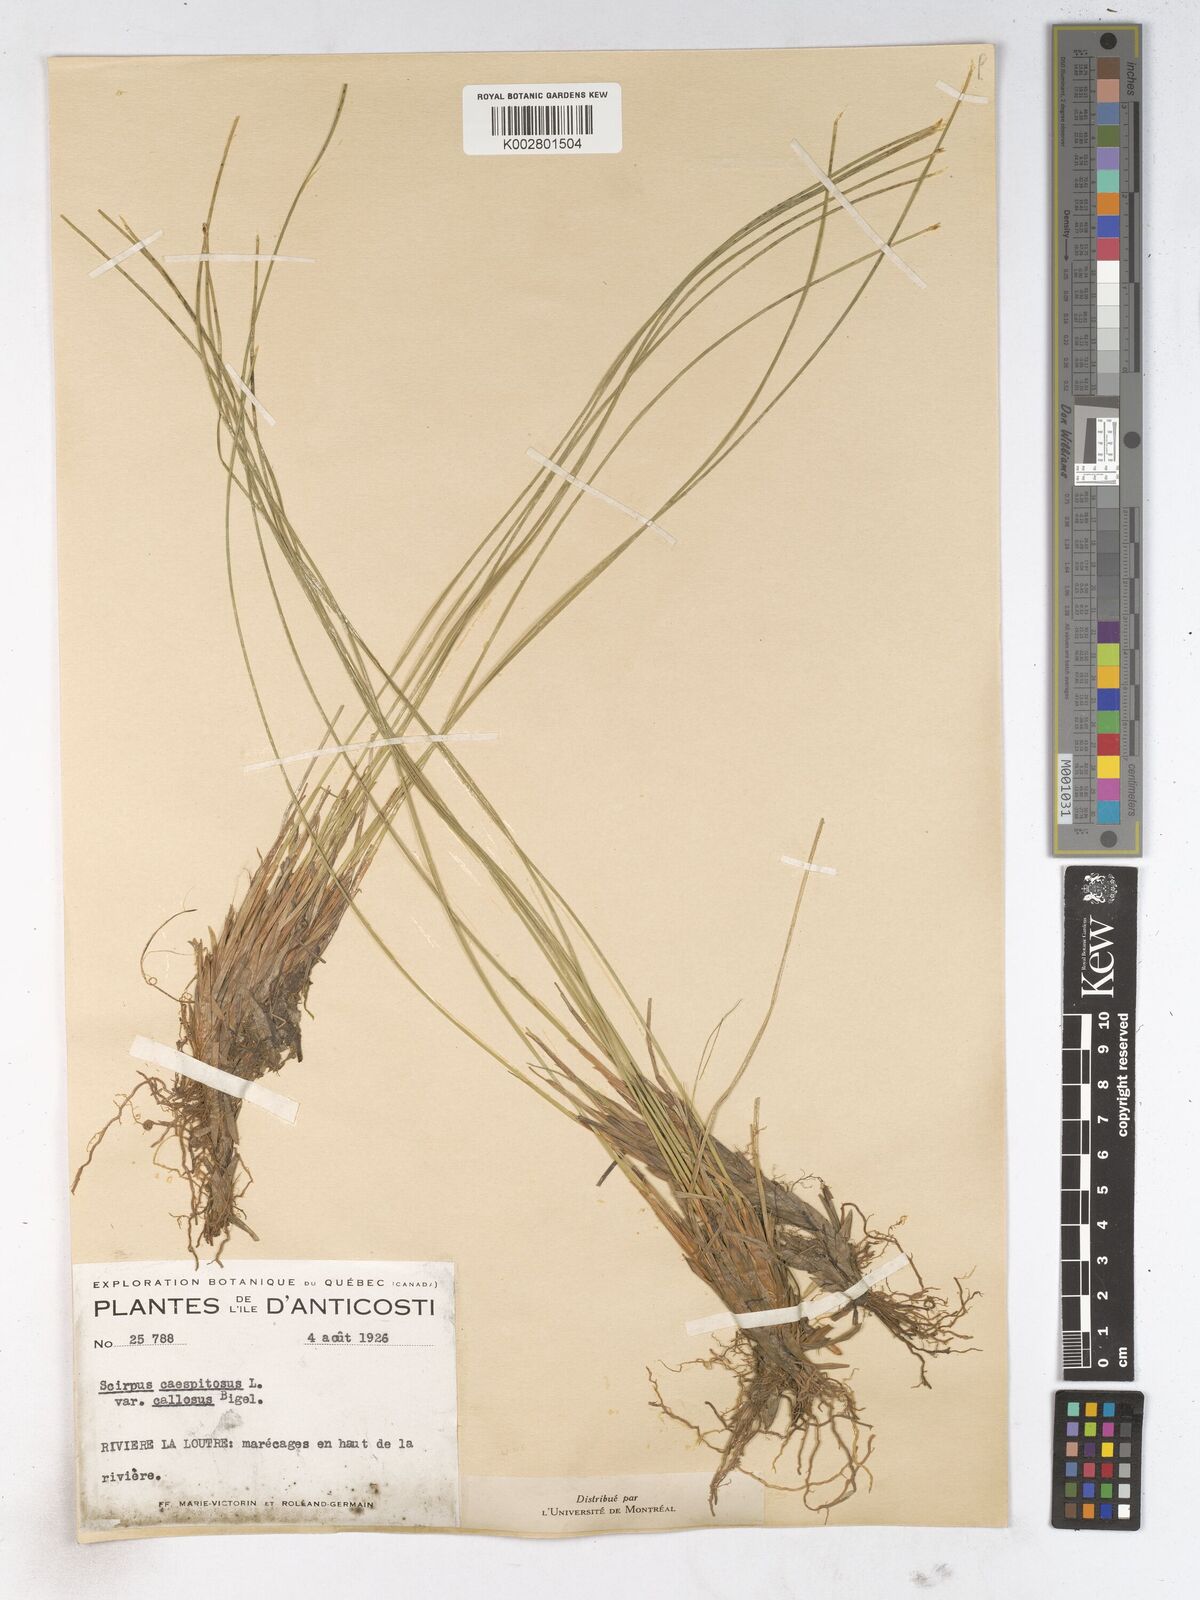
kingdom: Plantae
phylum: Tracheophyta
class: Liliopsida
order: Poales
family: Cyperaceae
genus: Trichophorum
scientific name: Trichophorum cespitosum
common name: Cespitose bulrush
